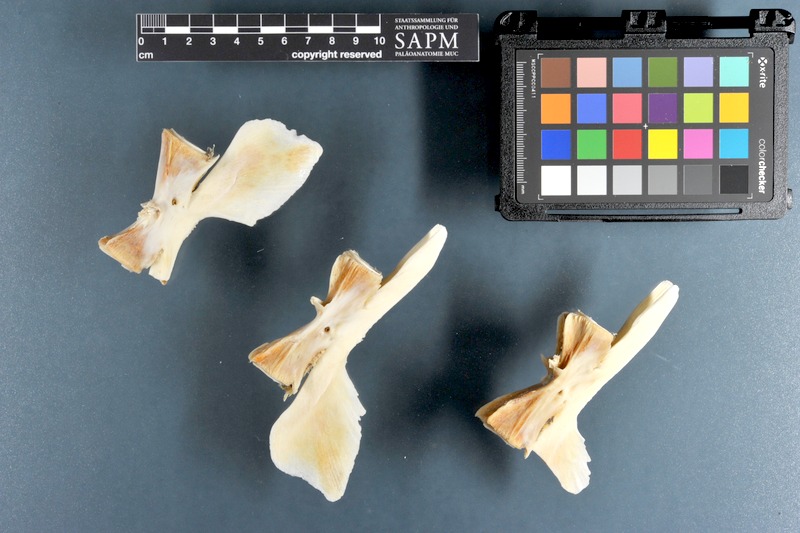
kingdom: Animalia
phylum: Chordata
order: Perciformes
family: Istiophoridae
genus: Istiophorus
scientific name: Istiophorus platypterus
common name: Sailfish
